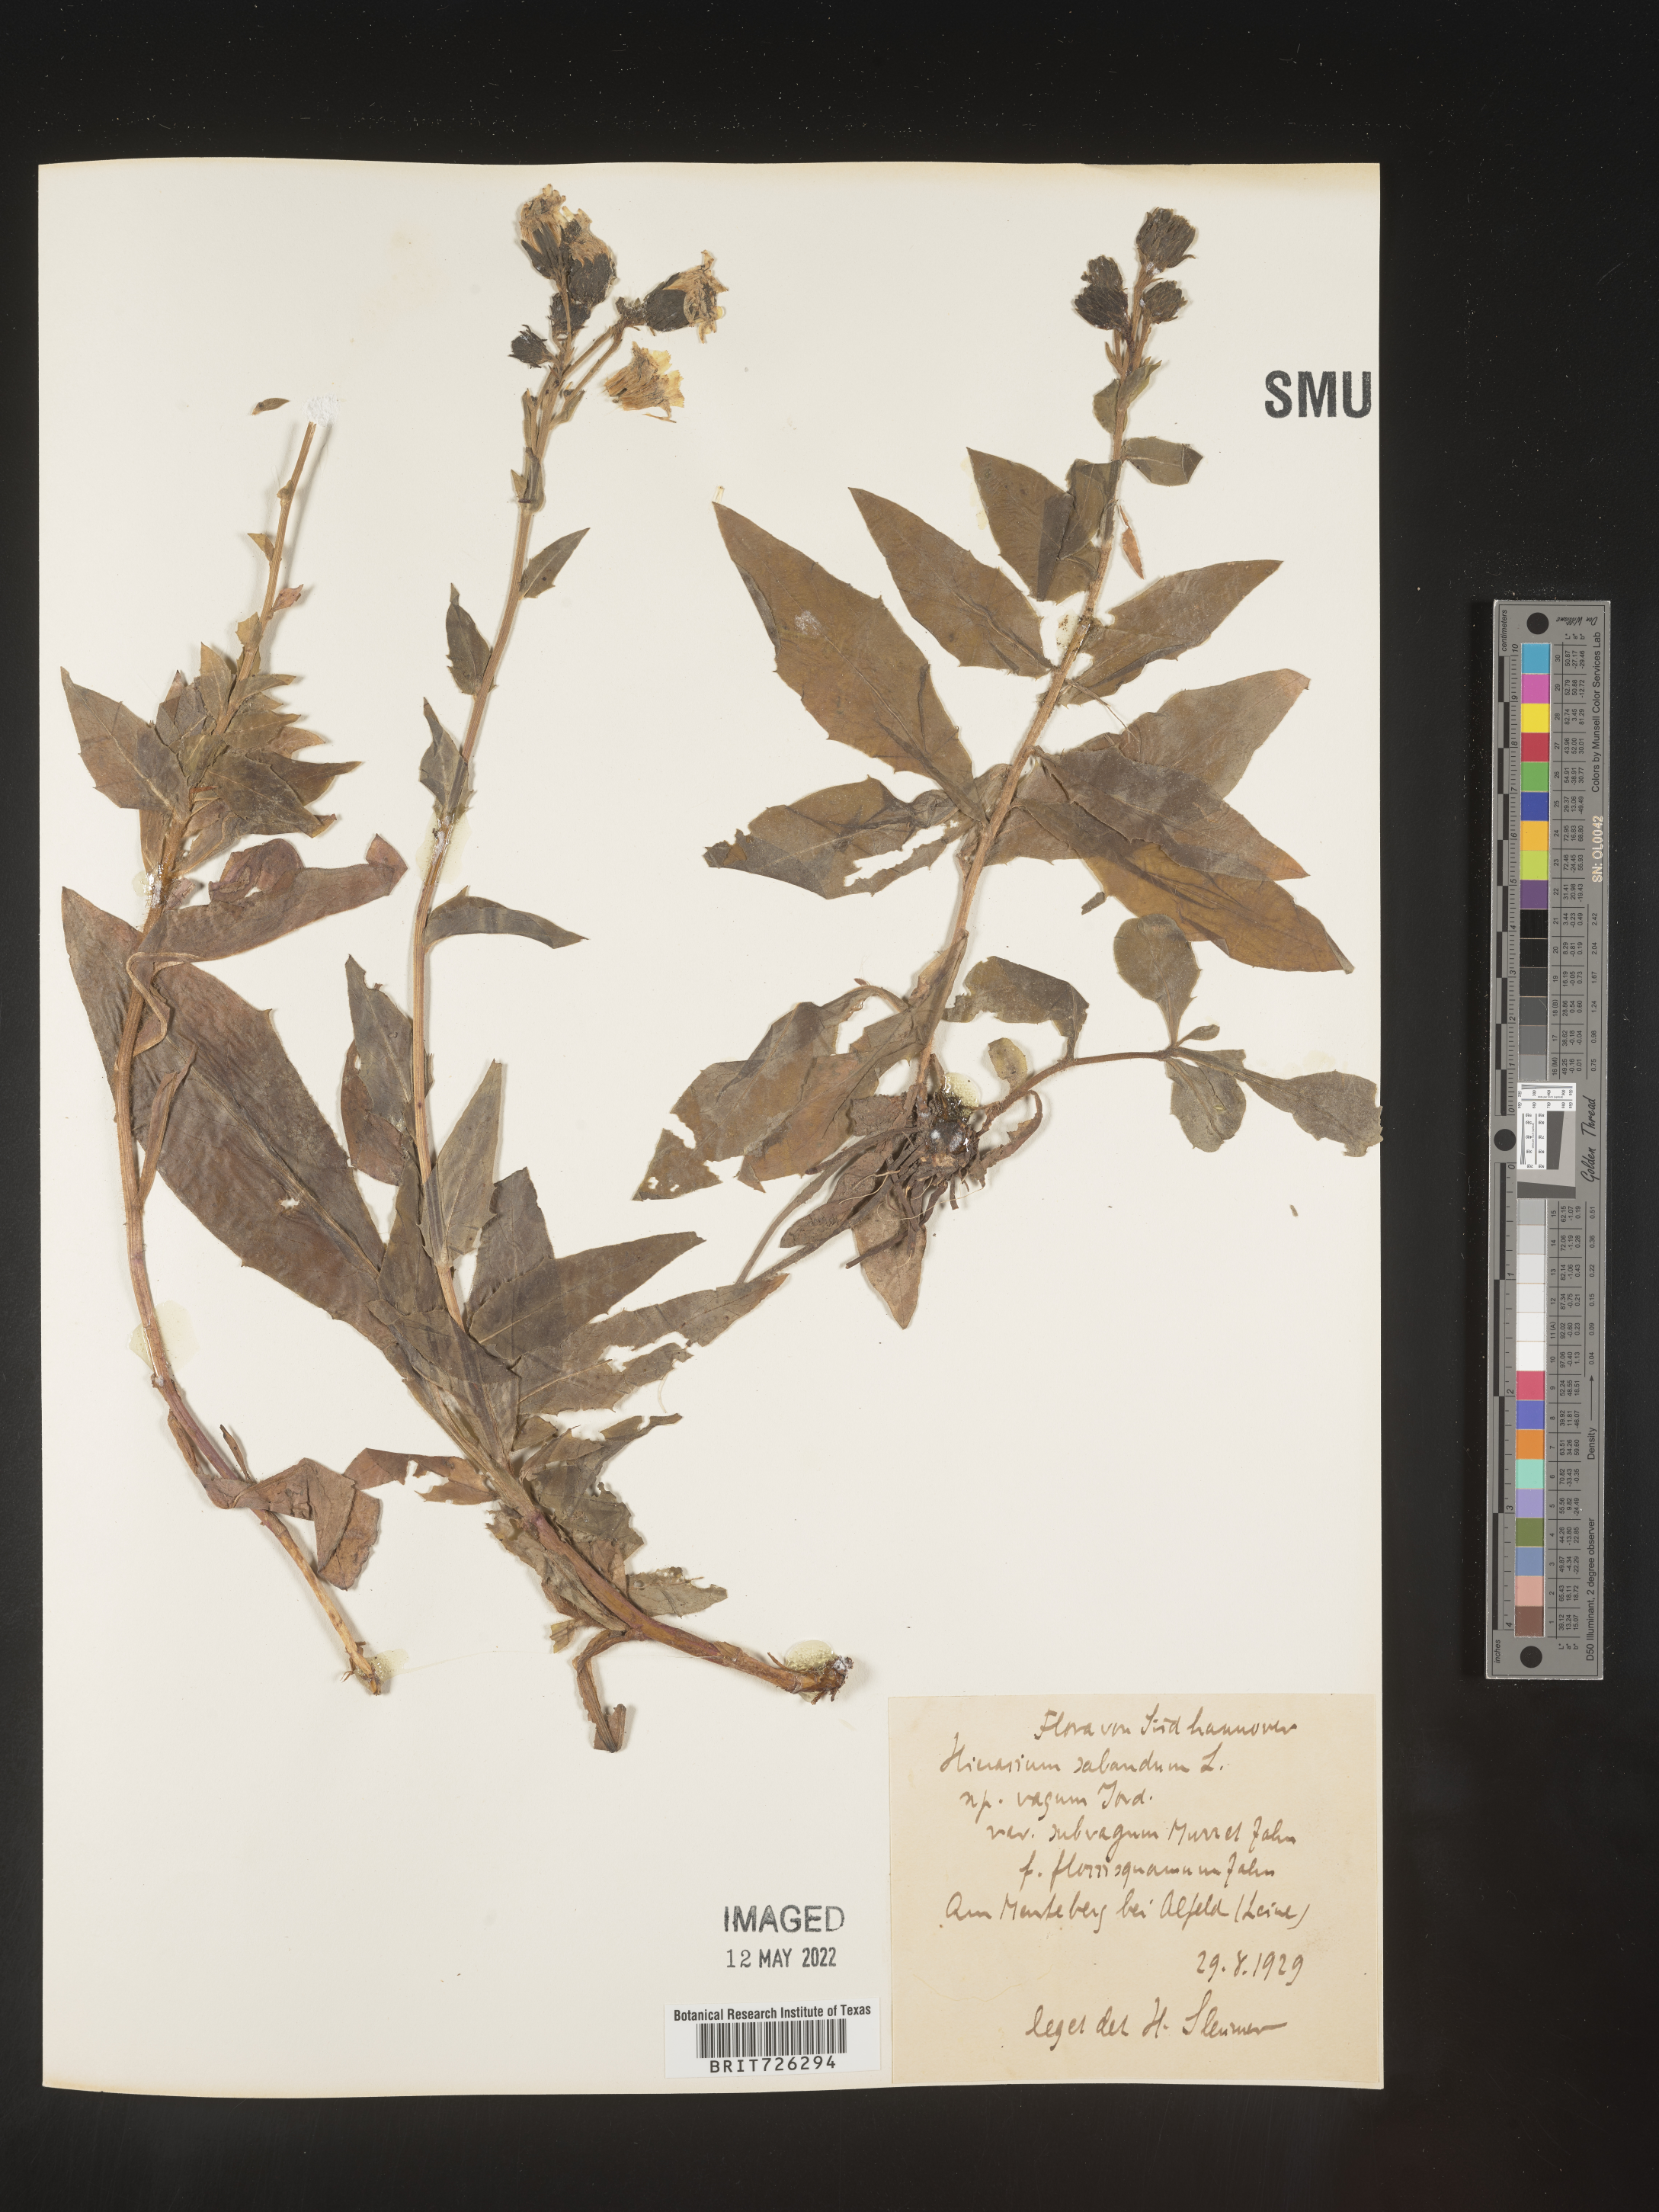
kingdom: Plantae
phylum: Tracheophyta
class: Magnoliopsida
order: Asterales
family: Asteraceae
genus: Hieracium
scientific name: Hieracium
